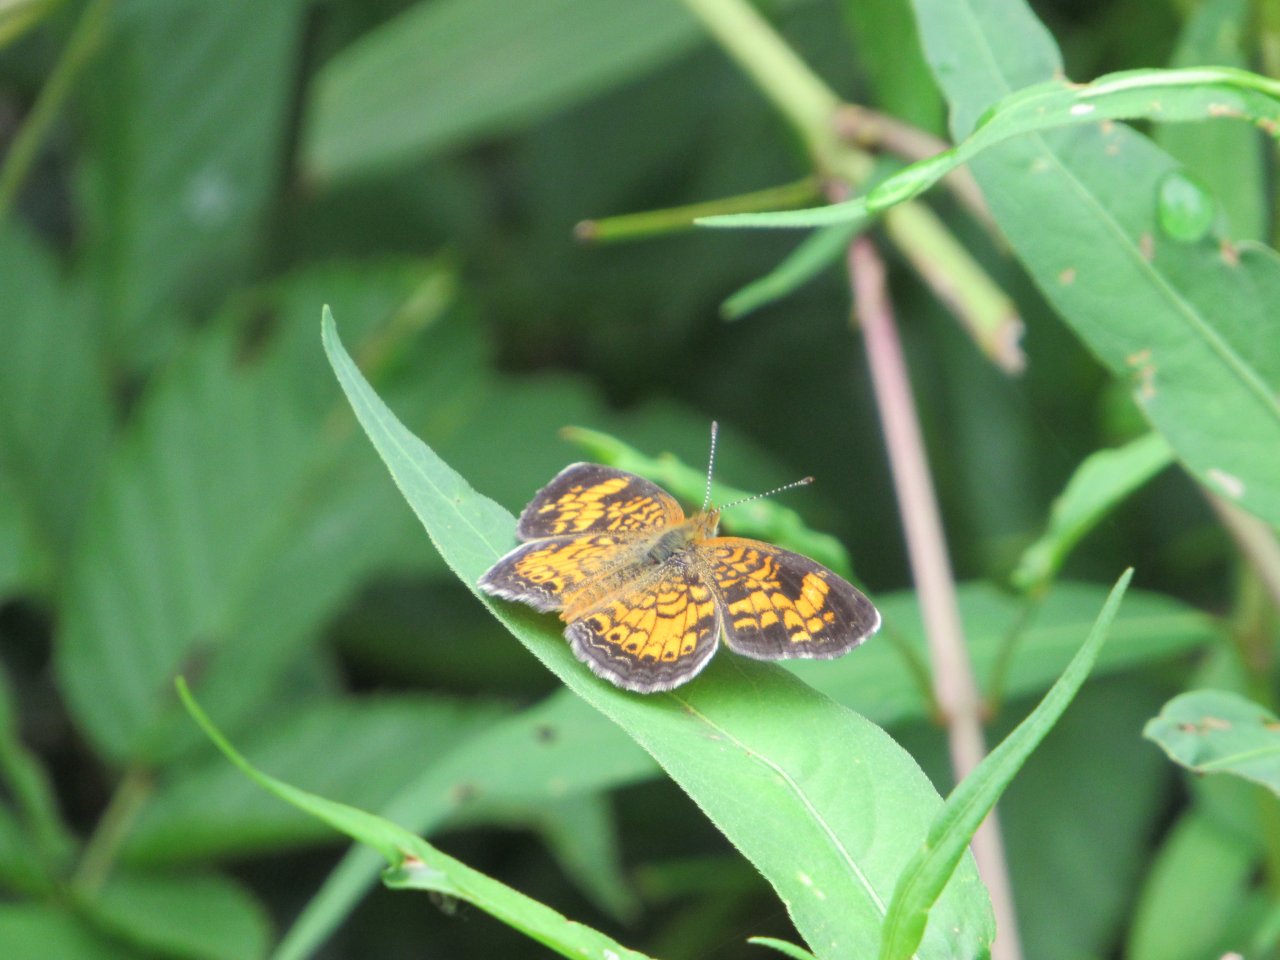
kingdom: Animalia
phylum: Arthropoda
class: Insecta
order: Lepidoptera
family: Nymphalidae
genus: Phyciodes
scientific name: Phyciodes tharos
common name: Pearl Crescent
